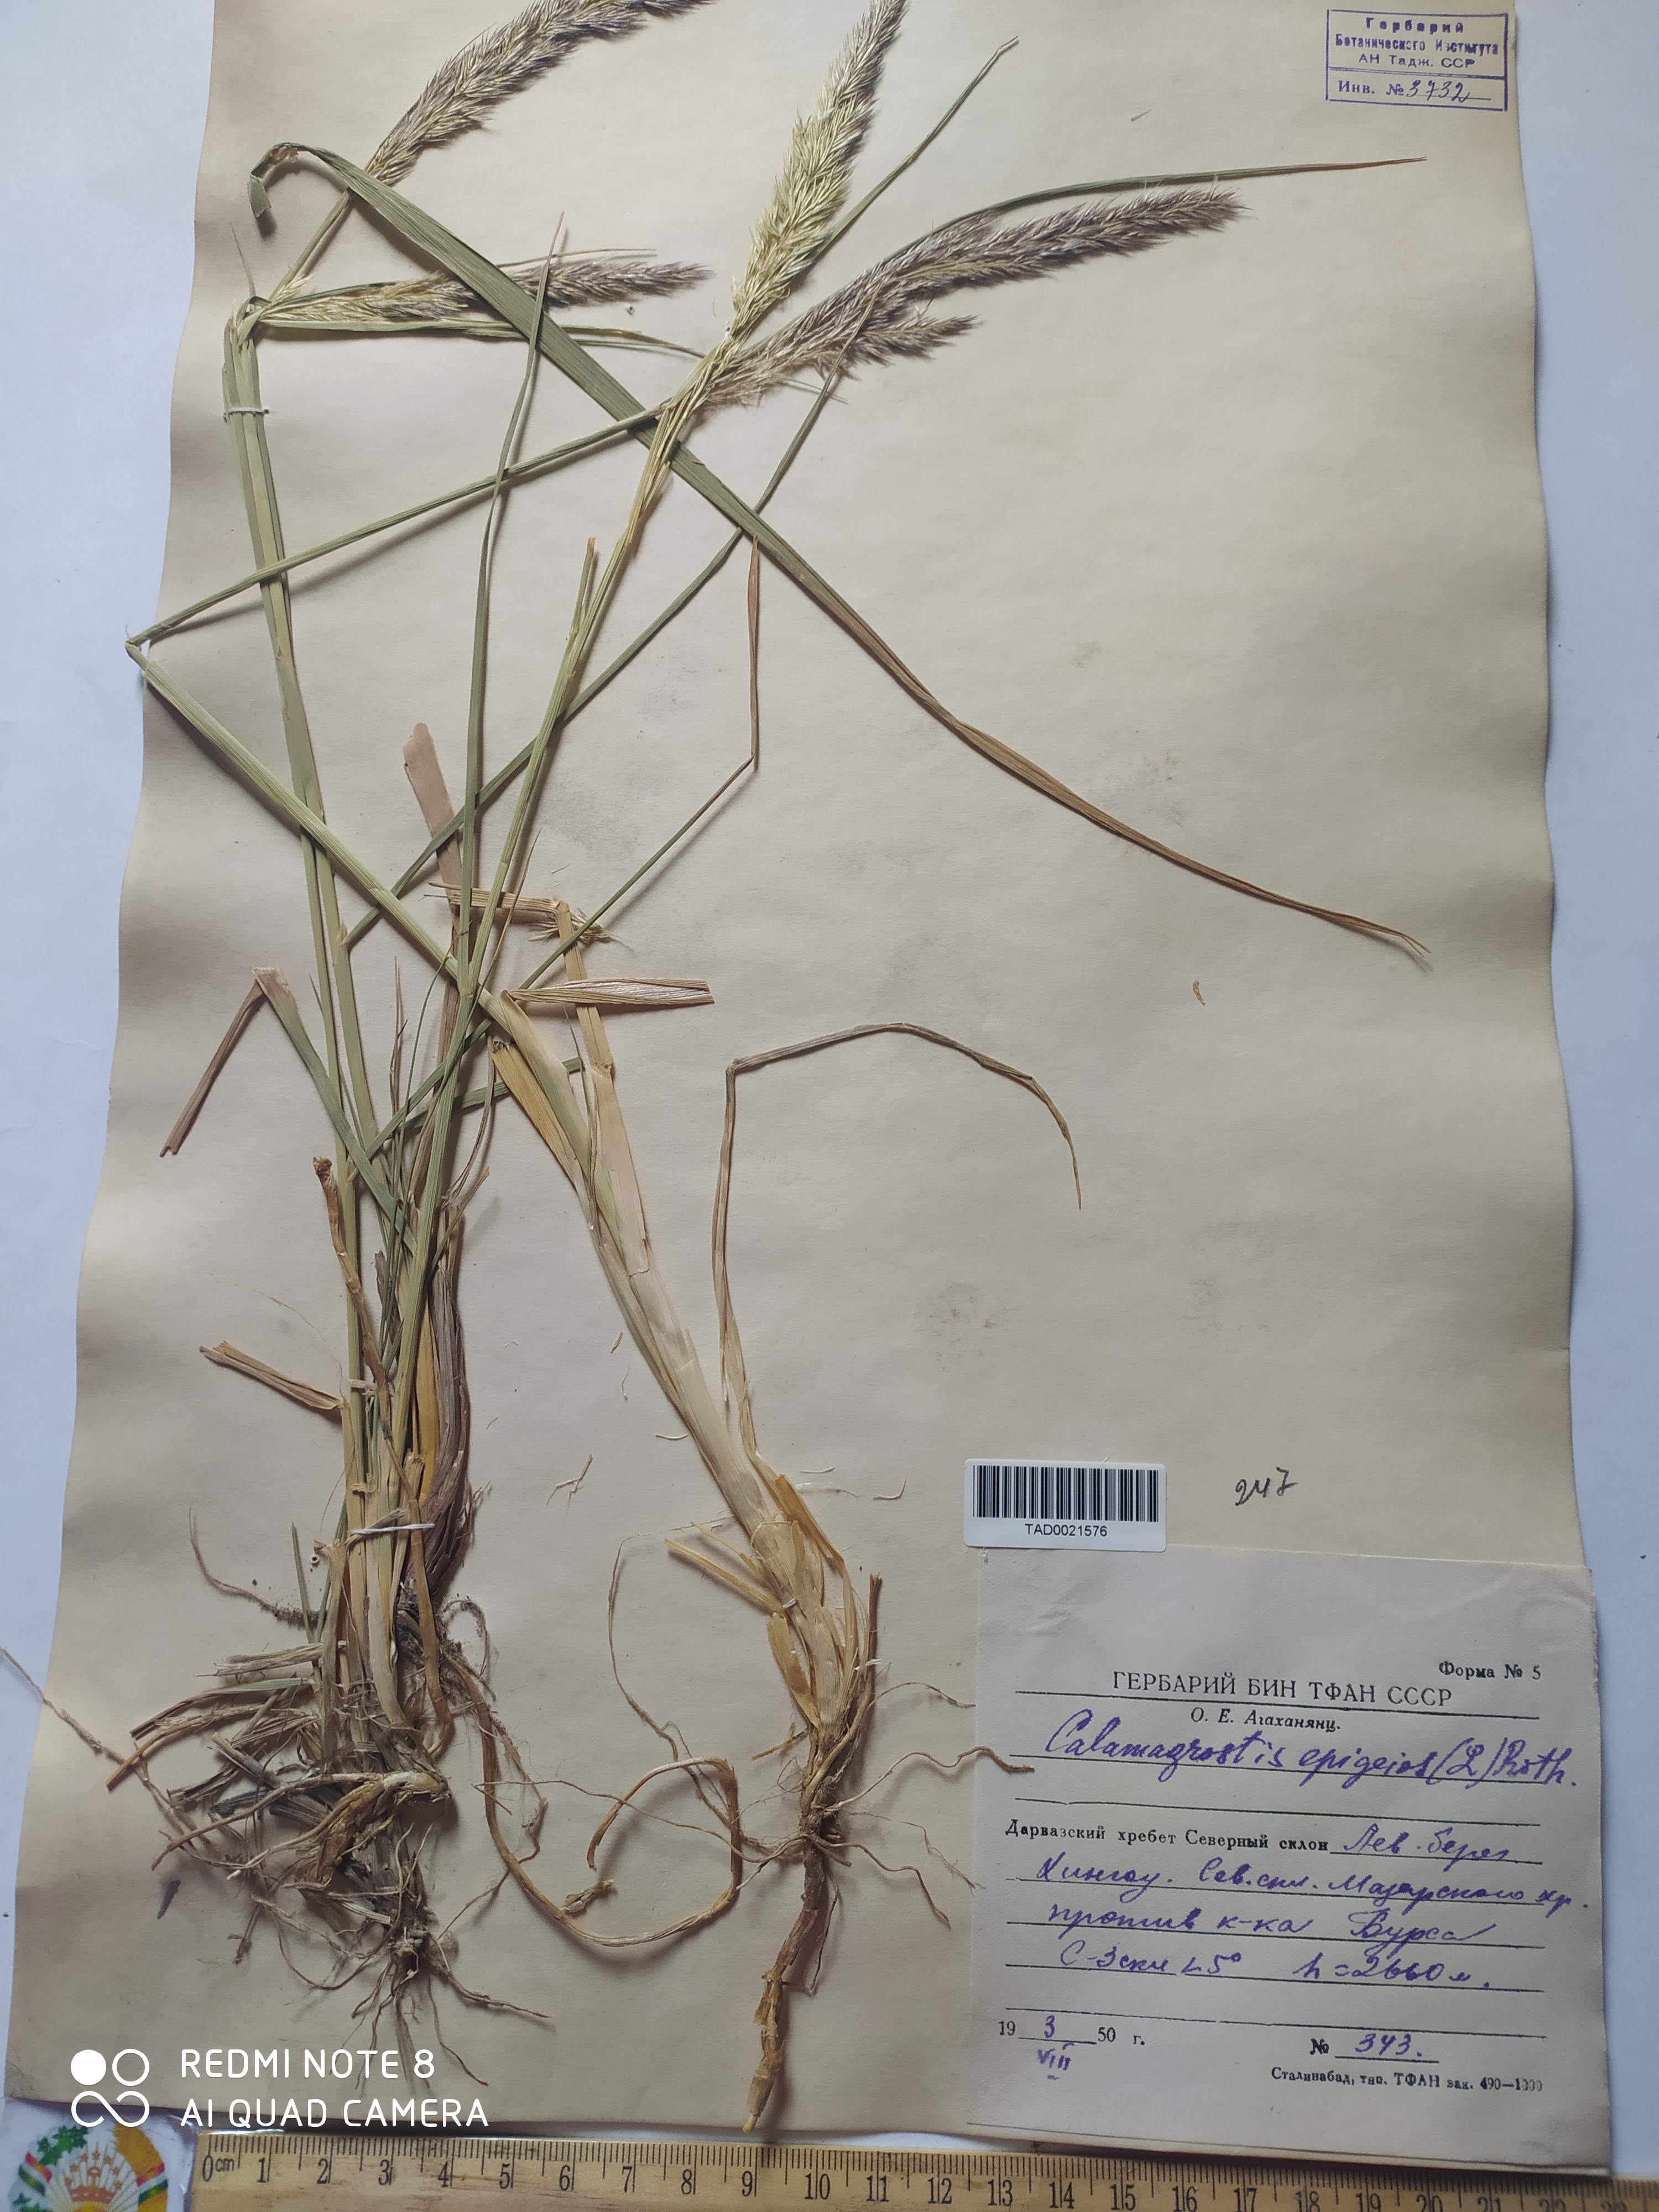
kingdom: Plantae
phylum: Tracheophyta
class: Liliopsida
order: Poales
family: Poaceae
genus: Calamagrostis
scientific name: Calamagrostis epigejos
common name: Wood small-reed
